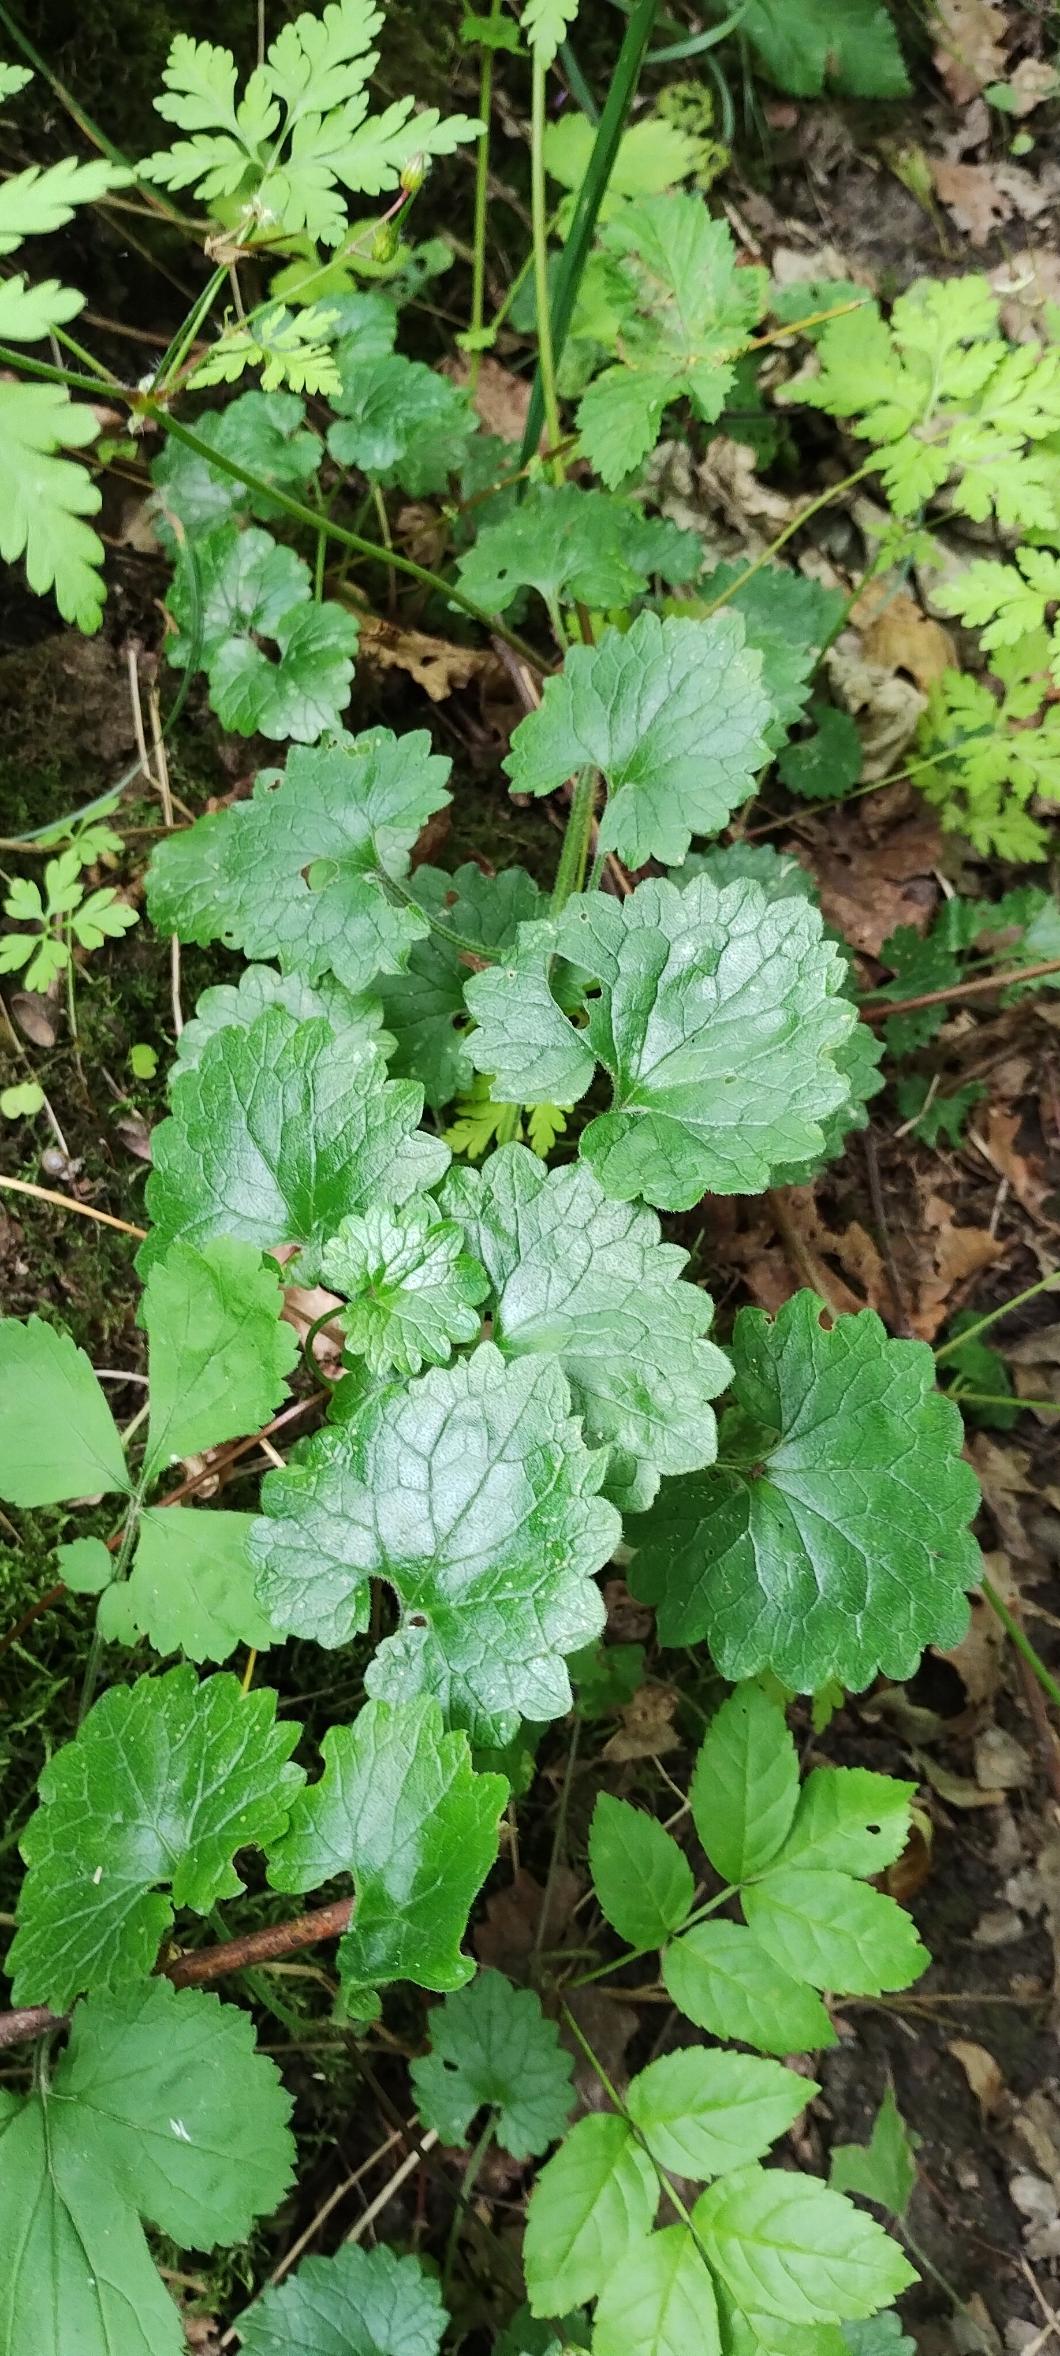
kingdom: Plantae
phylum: Tracheophyta
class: Magnoliopsida
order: Lamiales
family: Lamiaceae
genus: Glechoma
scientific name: Glechoma hederacea
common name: Korsknap
